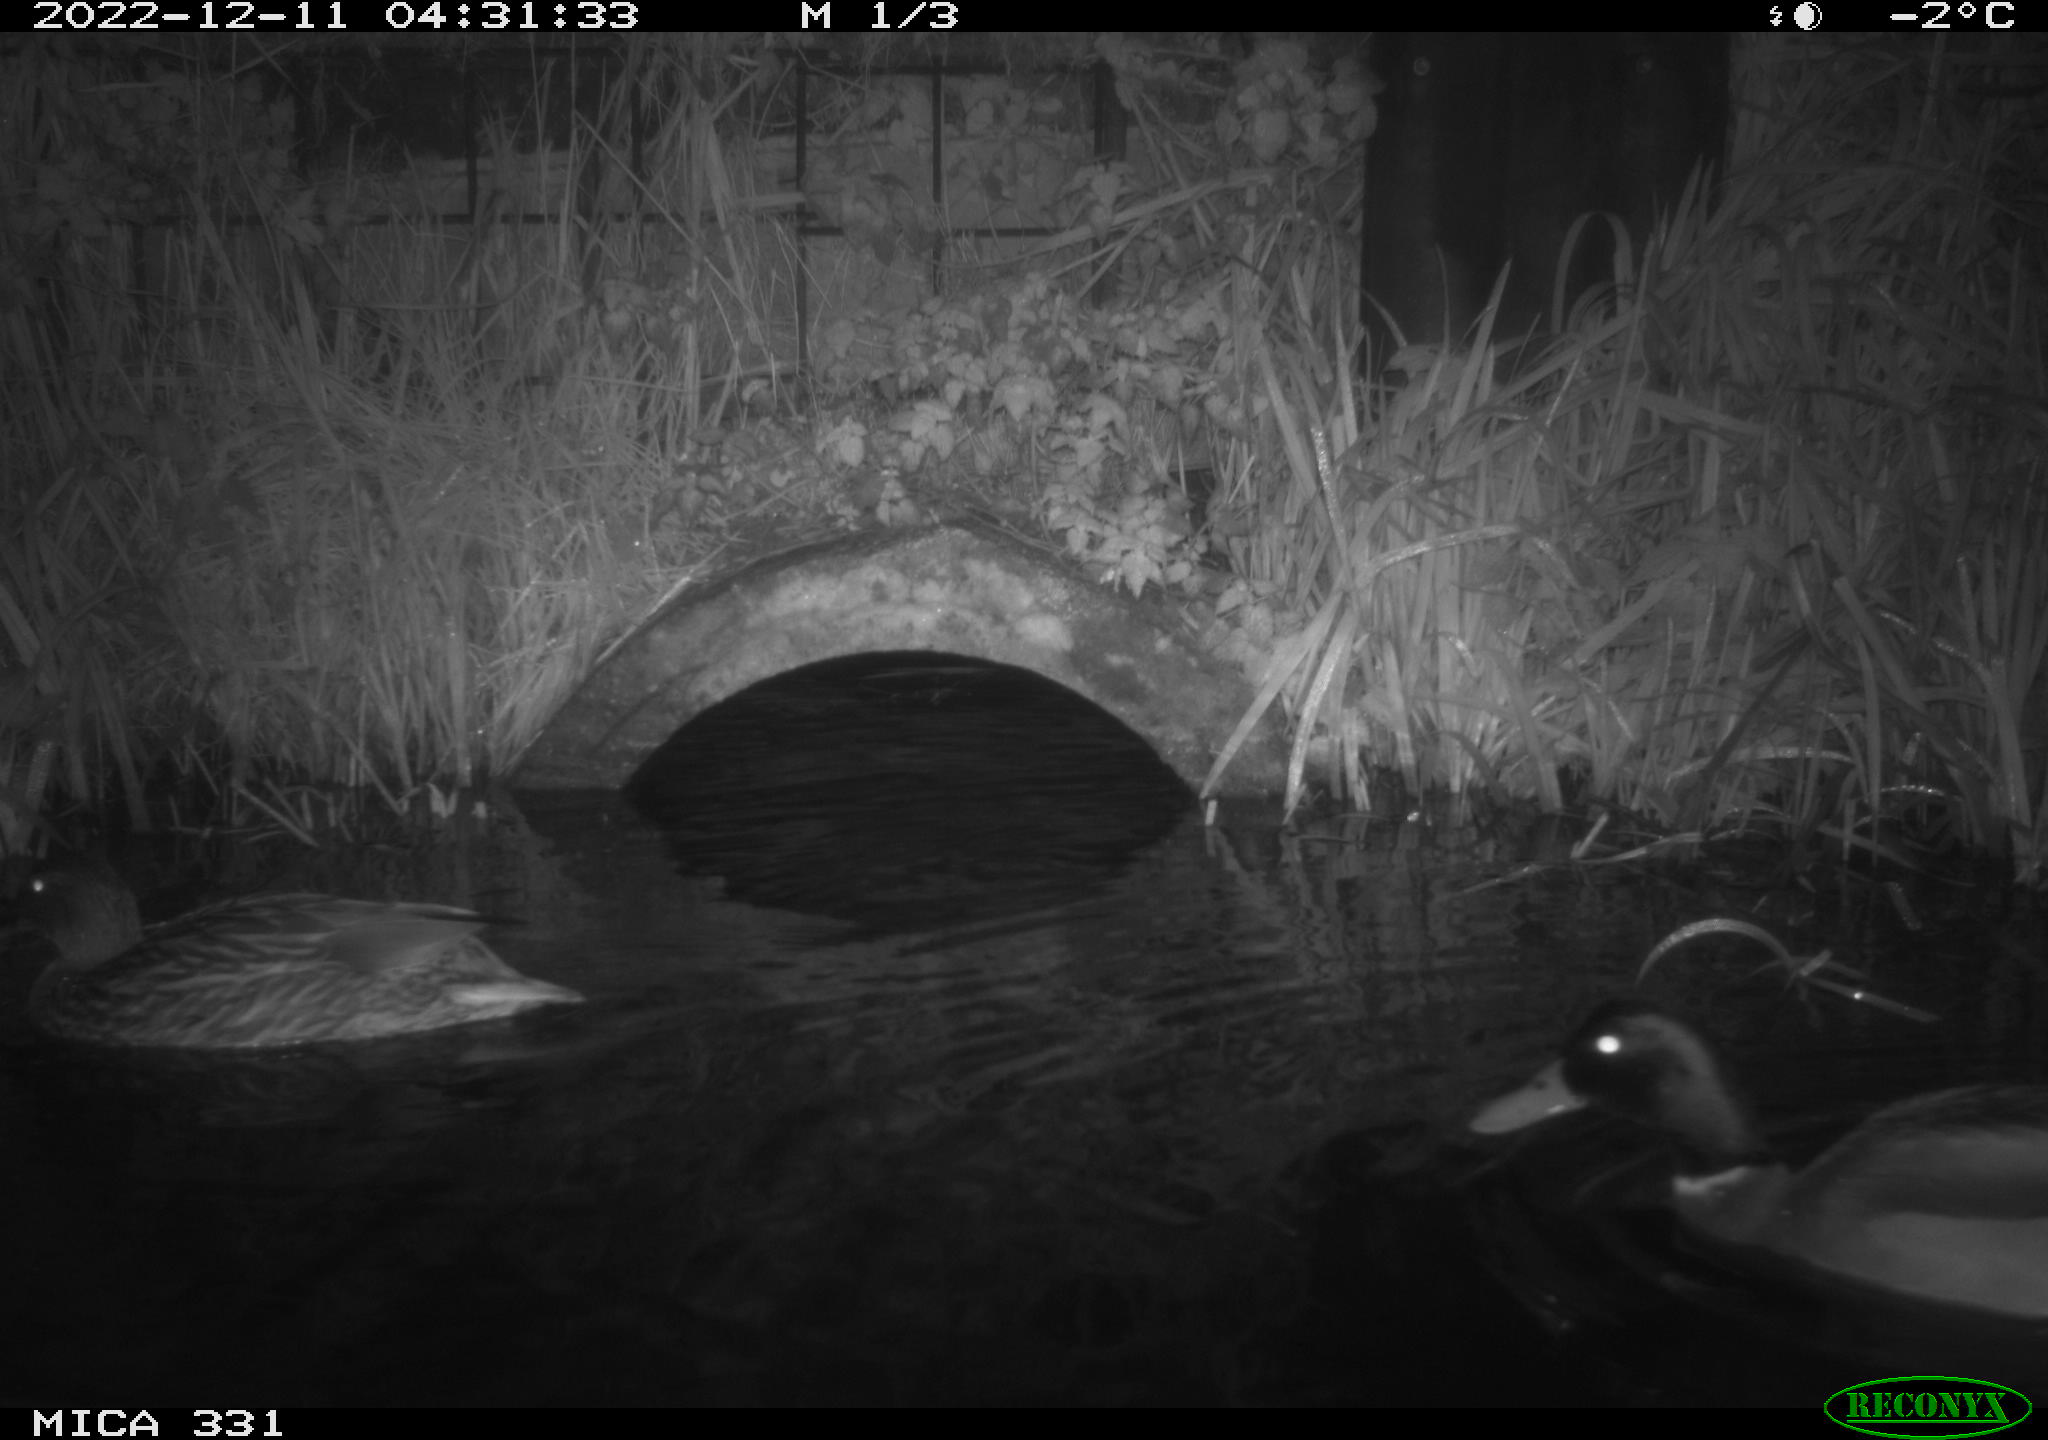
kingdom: Animalia
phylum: Chordata
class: Aves
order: Anseriformes
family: Anatidae
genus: Anas
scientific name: Anas
